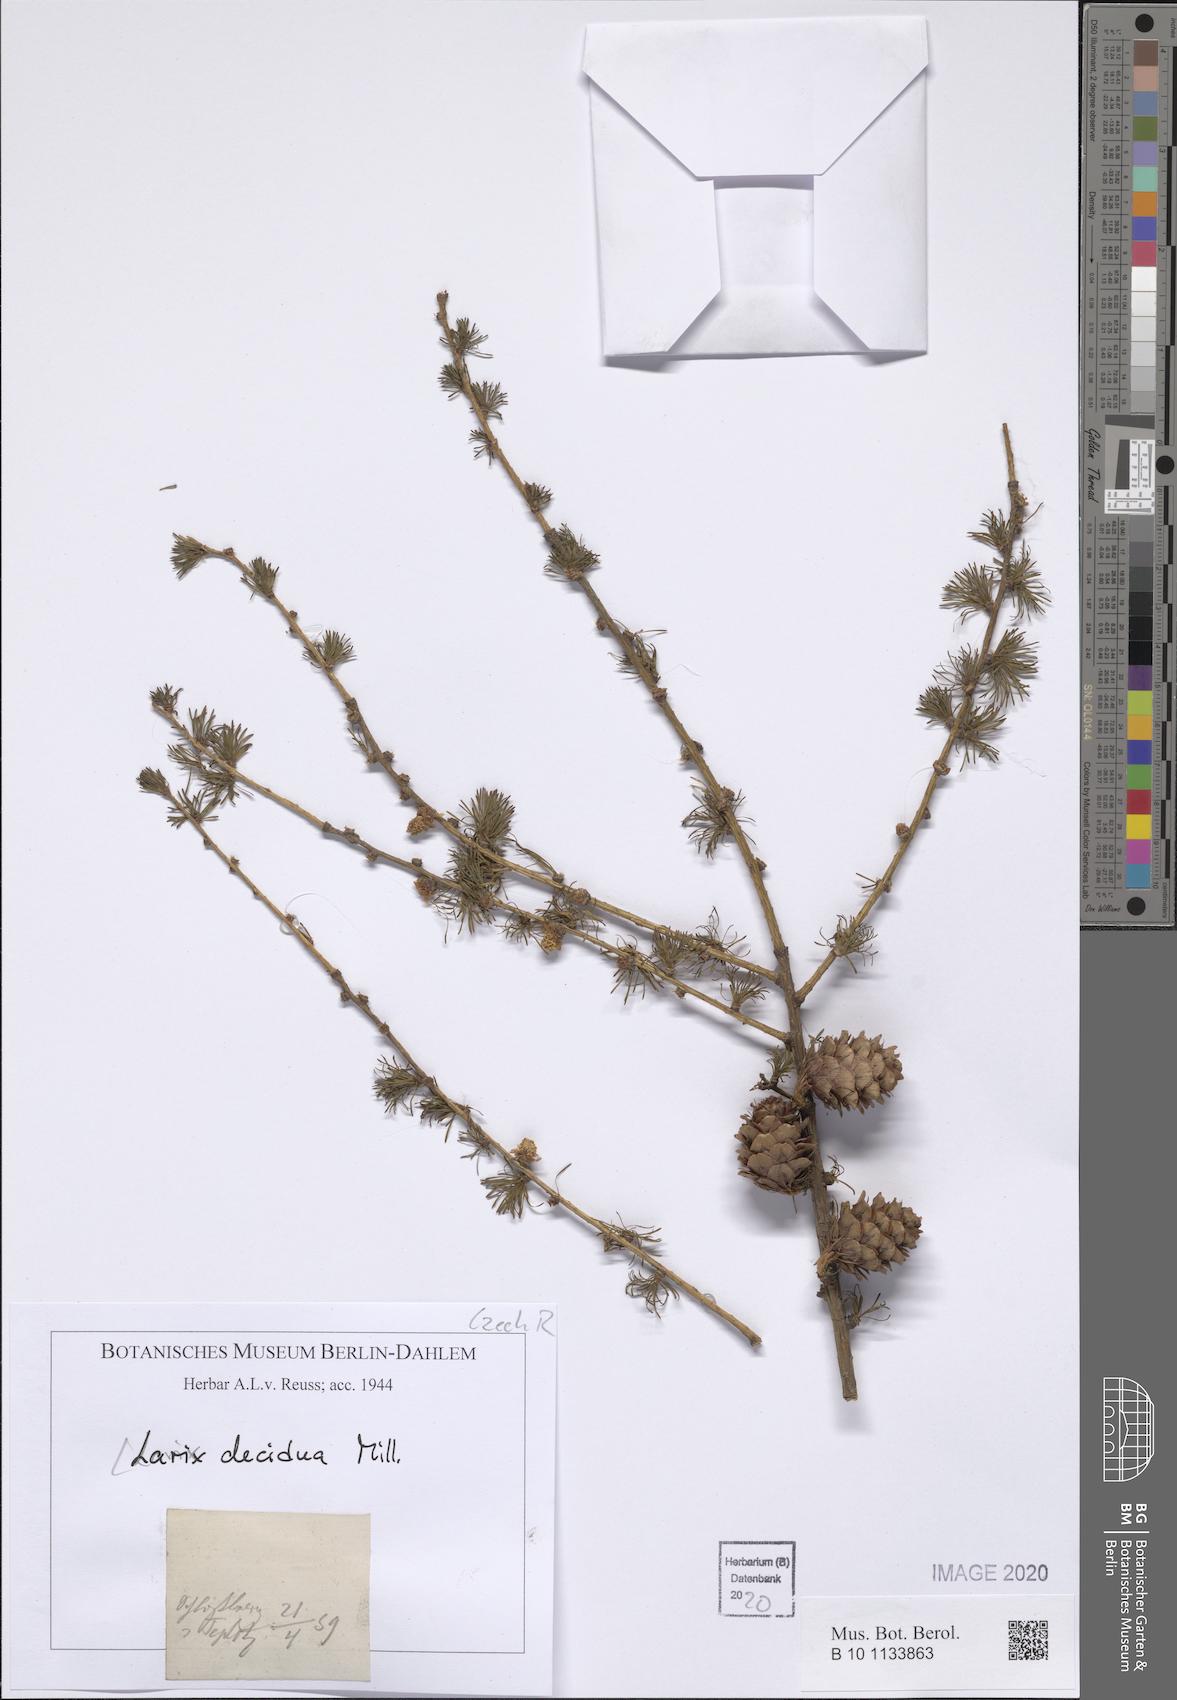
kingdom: Plantae
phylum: Tracheophyta
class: Pinopsida
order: Pinales
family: Pinaceae
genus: Larix
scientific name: Larix decidua
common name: European larch
